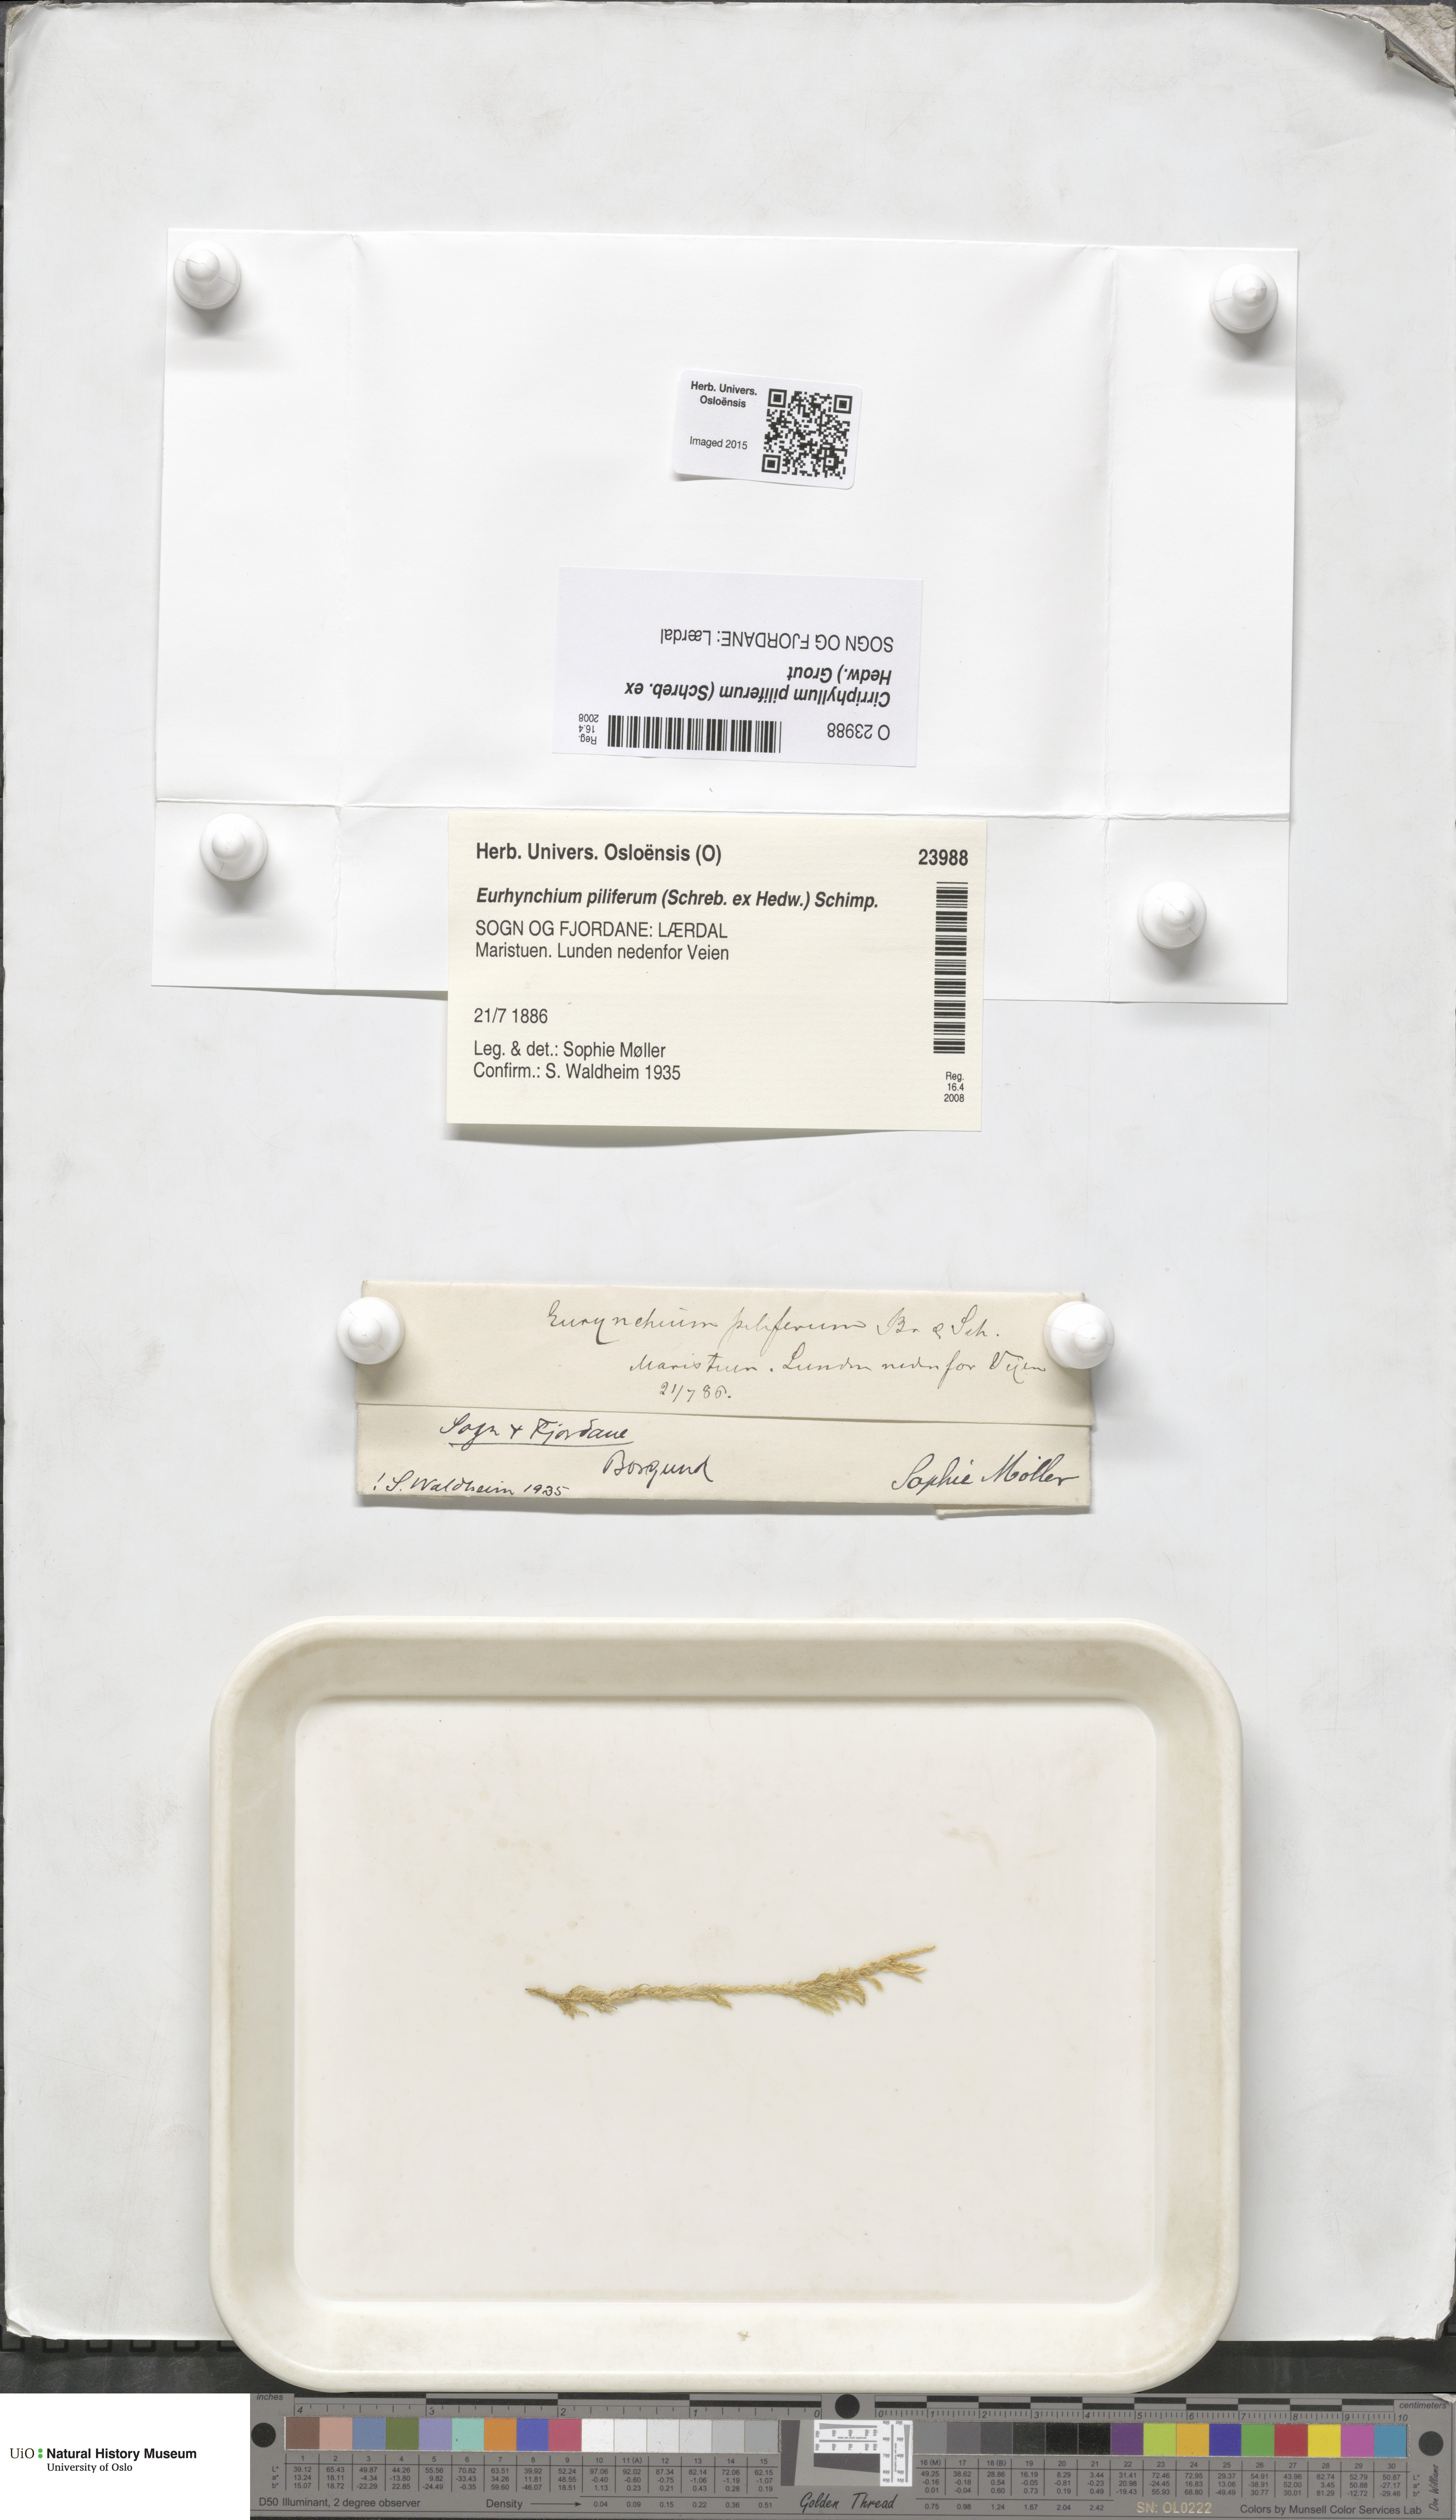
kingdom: Plantae
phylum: Bryophyta
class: Bryopsida
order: Hypnales
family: Brachytheciaceae
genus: Cirriphyllum
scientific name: Cirriphyllum piliferum
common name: Hair-pointed moss
